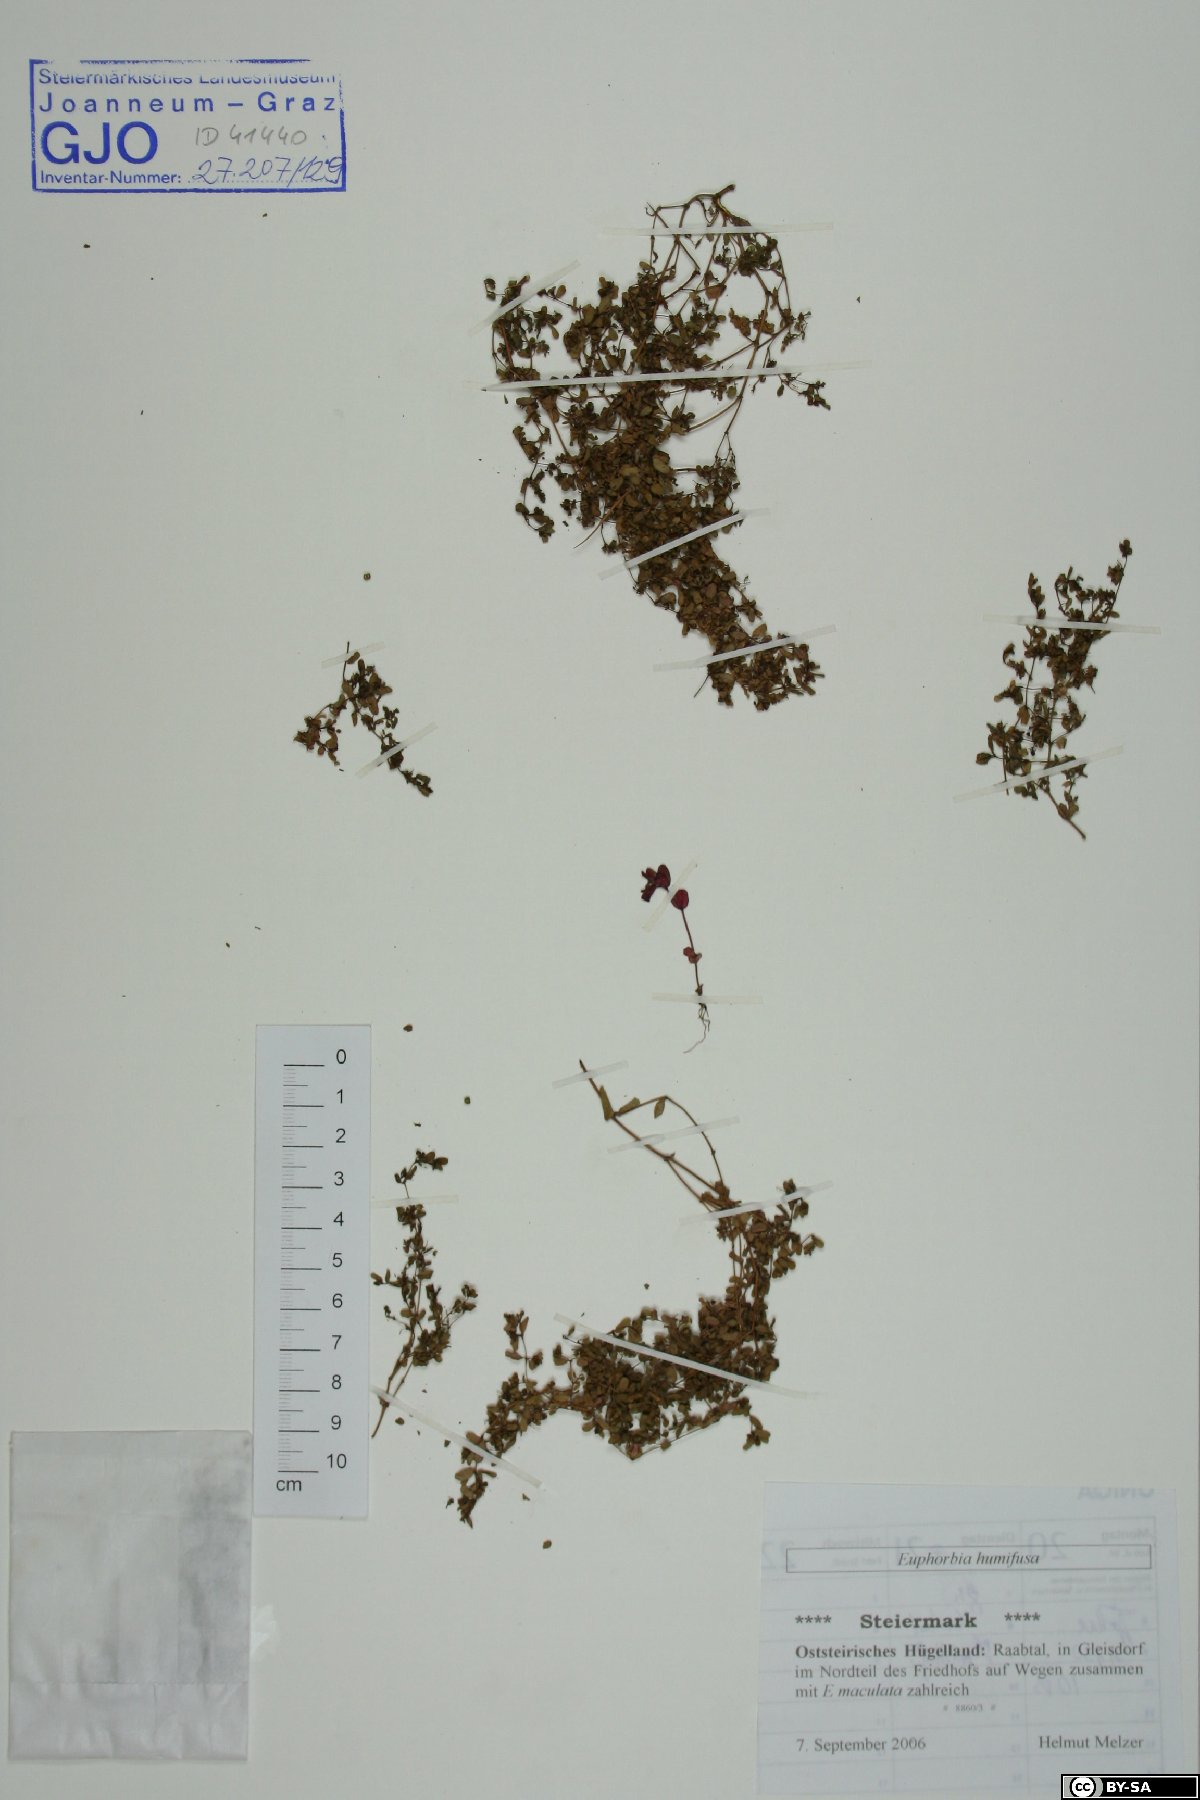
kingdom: Plantae
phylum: Tracheophyta
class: Magnoliopsida
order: Malpighiales
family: Euphorbiaceae
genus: Euphorbia
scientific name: Euphorbia humifusa
